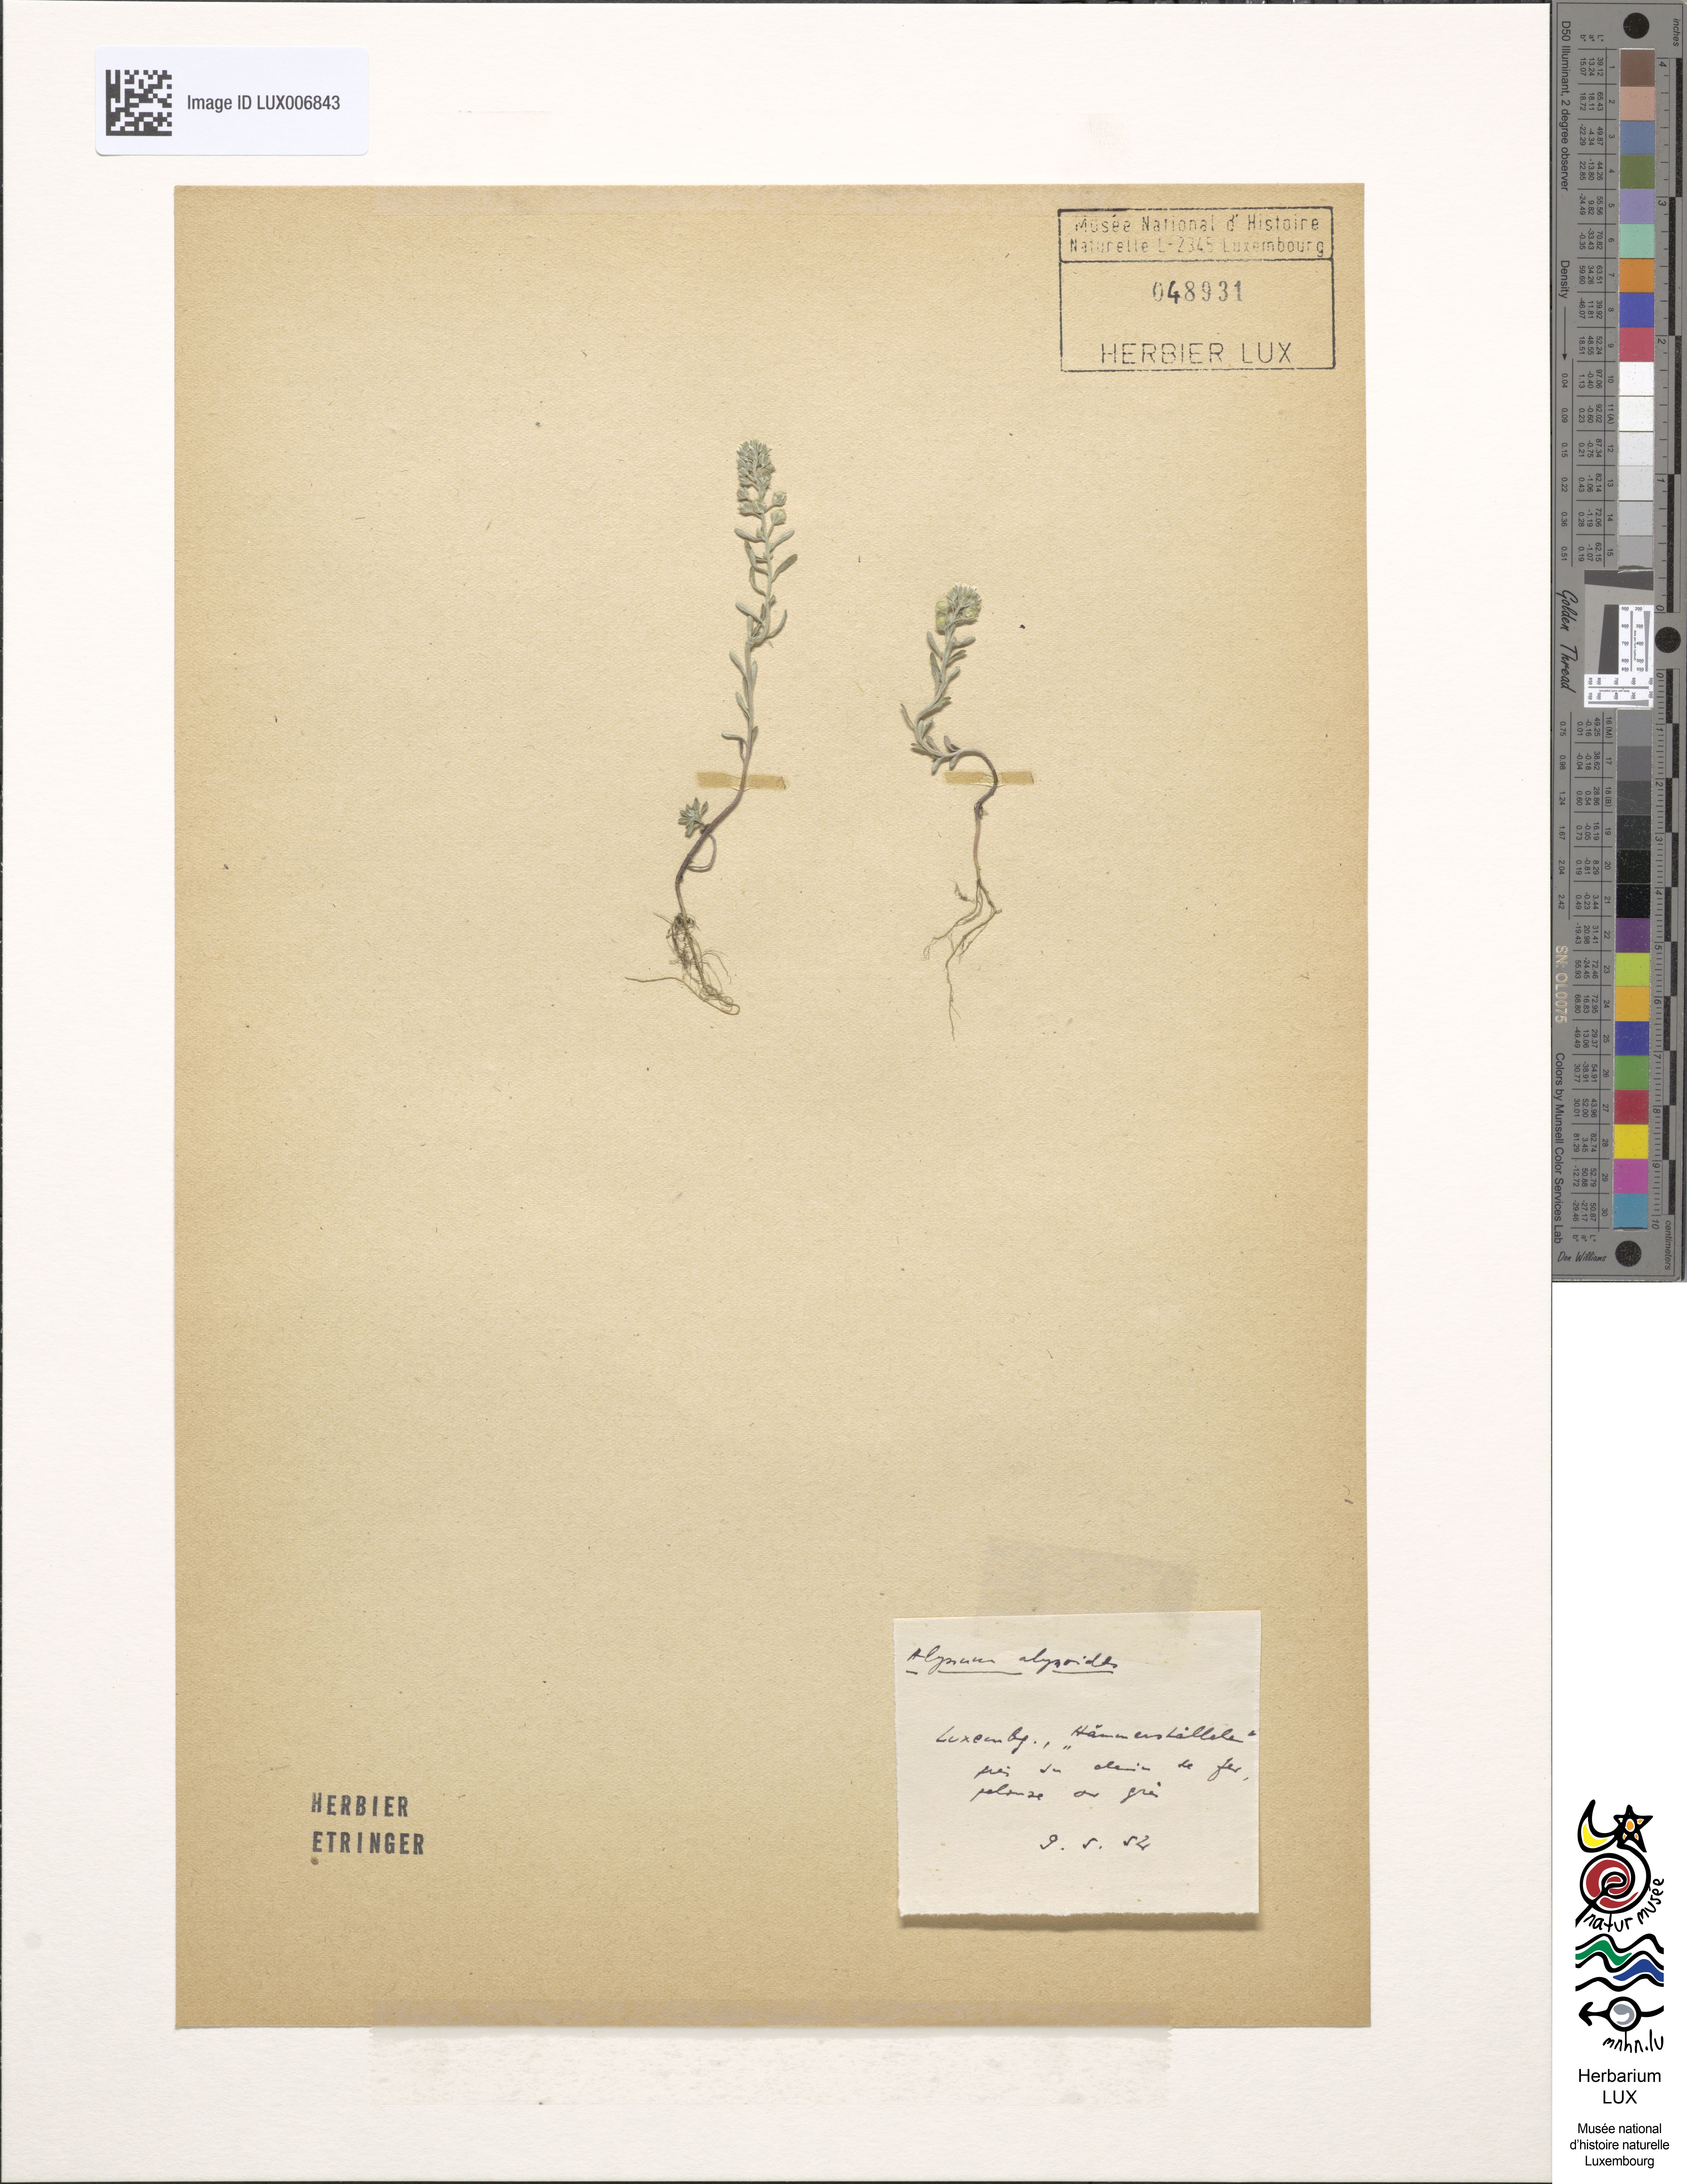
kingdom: Plantae
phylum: Tracheophyta
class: Magnoliopsida
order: Brassicales
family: Brassicaceae
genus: Alyssum
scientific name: Alyssum alyssoides
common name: Small alison
